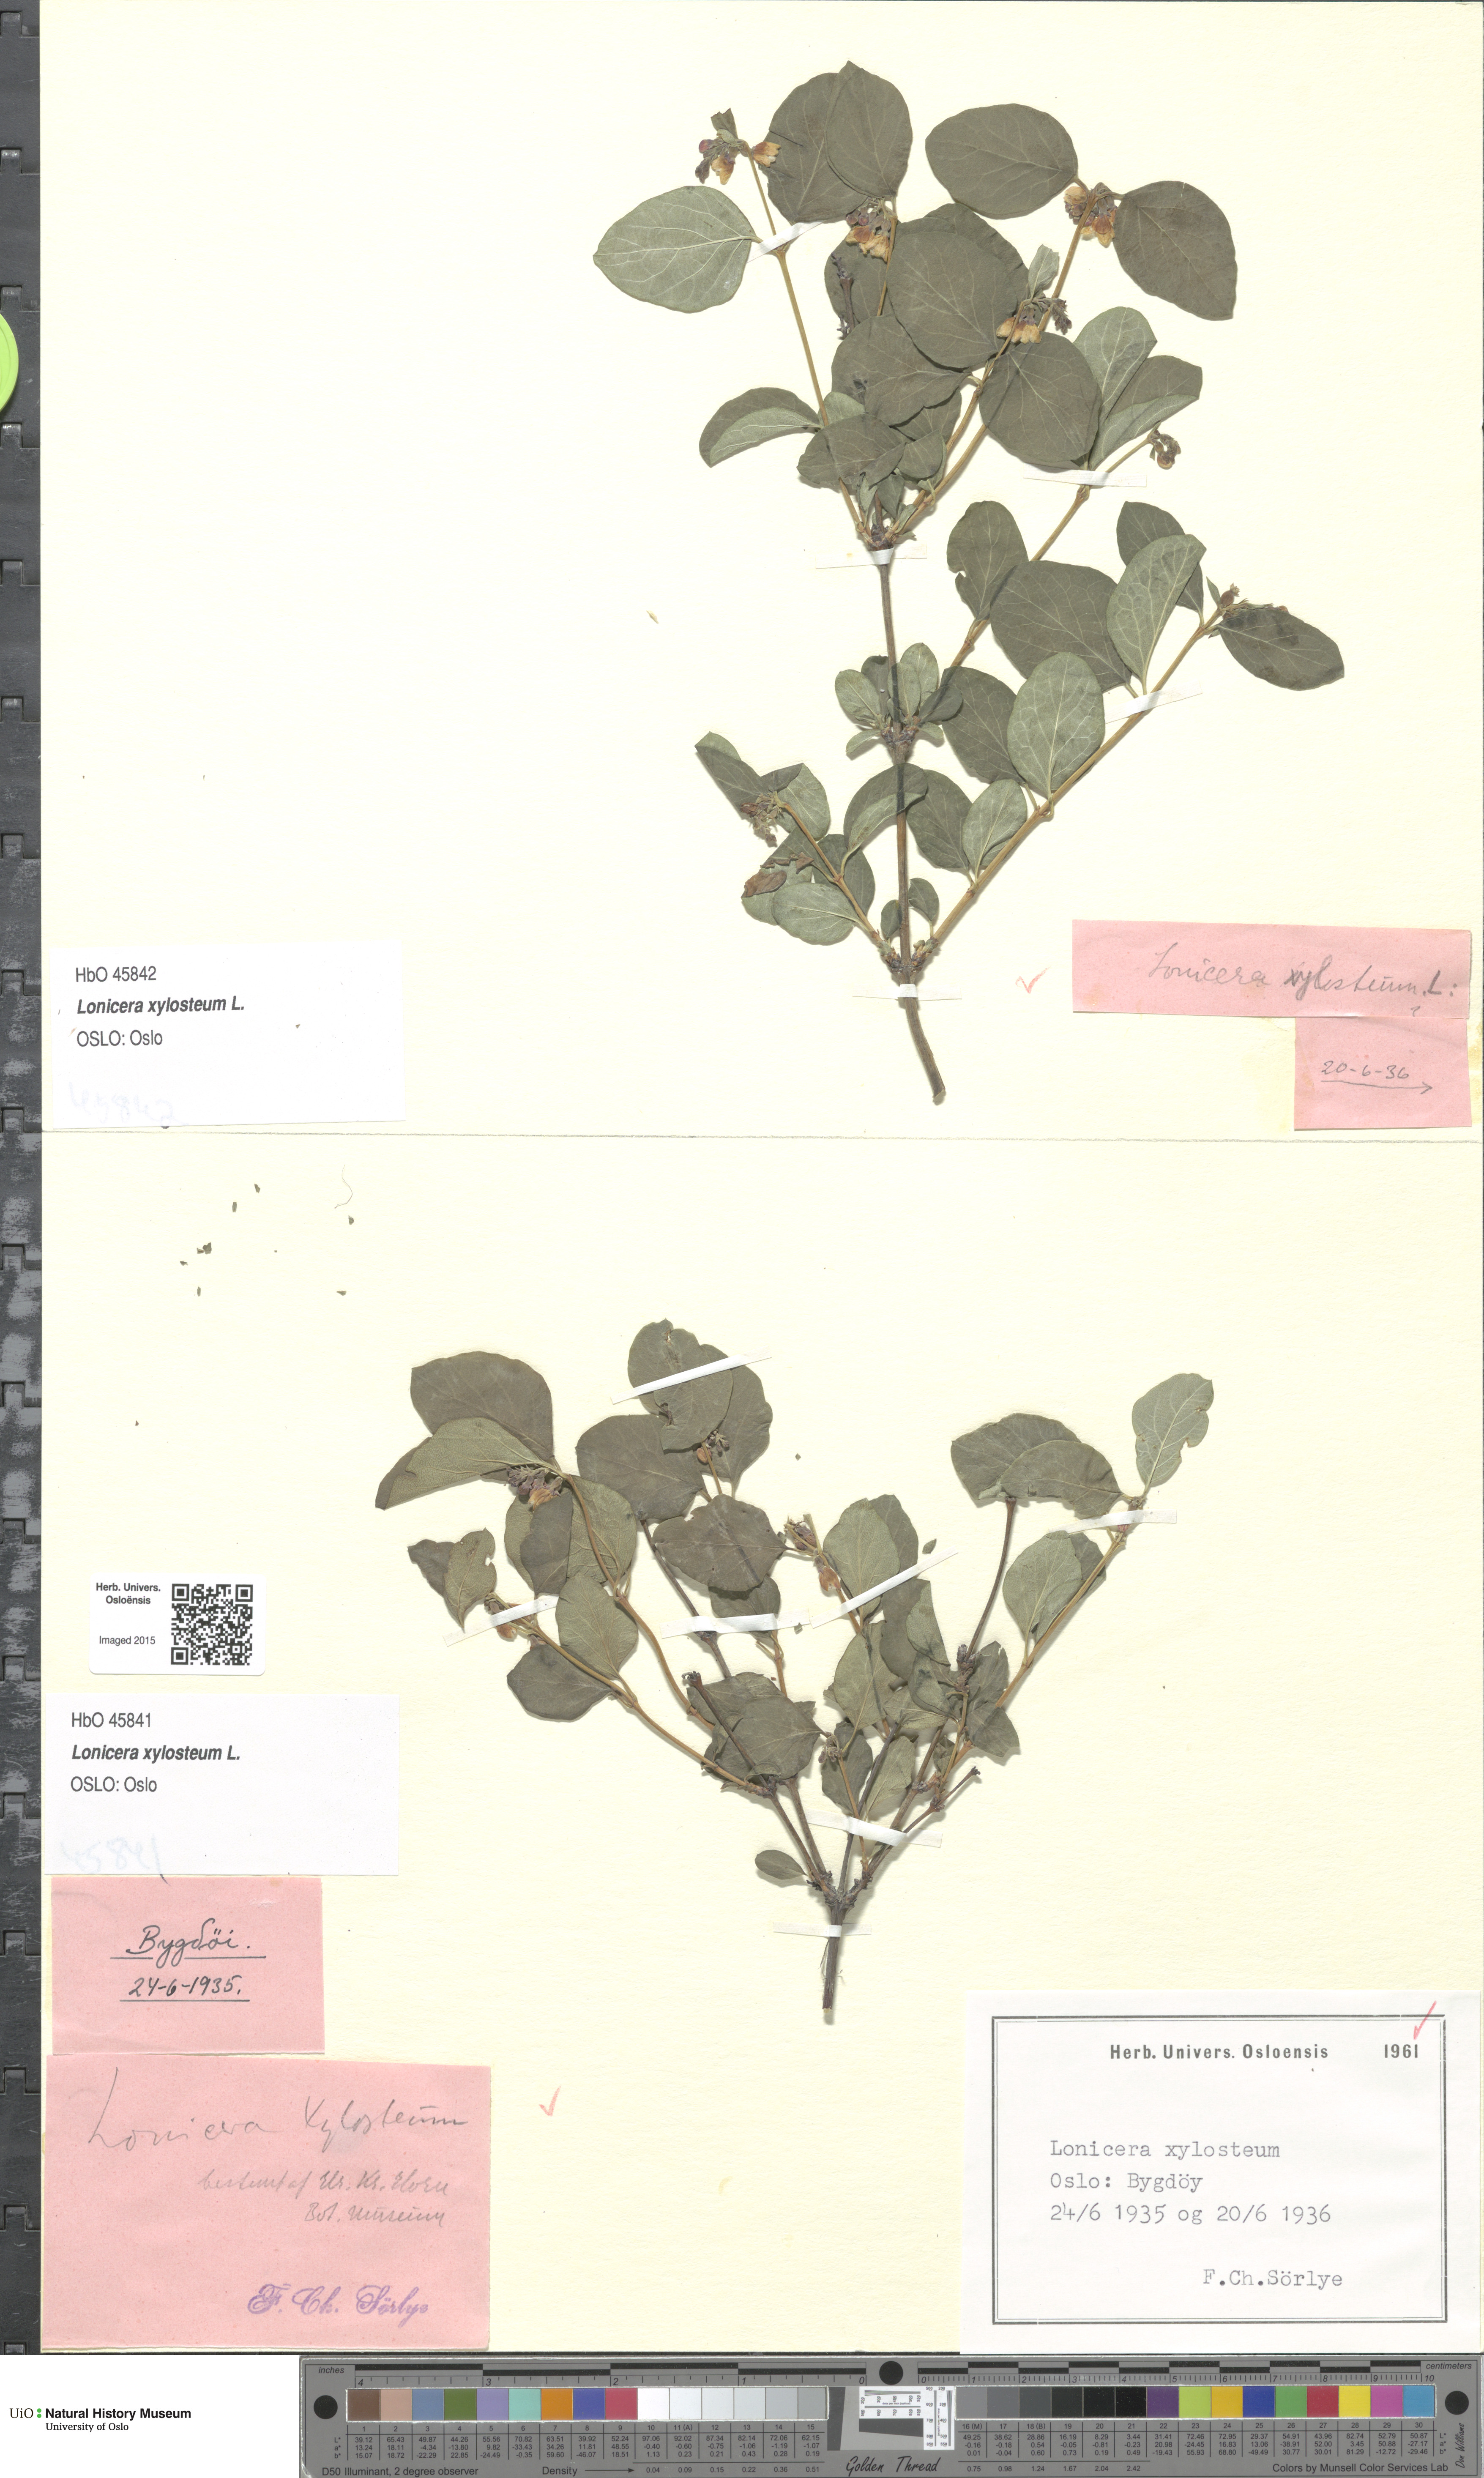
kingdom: Plantae
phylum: Tracheophyta
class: Magnoliopsida
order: Dipsacales
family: Caprifoliaceae
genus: Lonicera
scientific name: Lonicera xylosteum
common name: Fly honeysuckle
